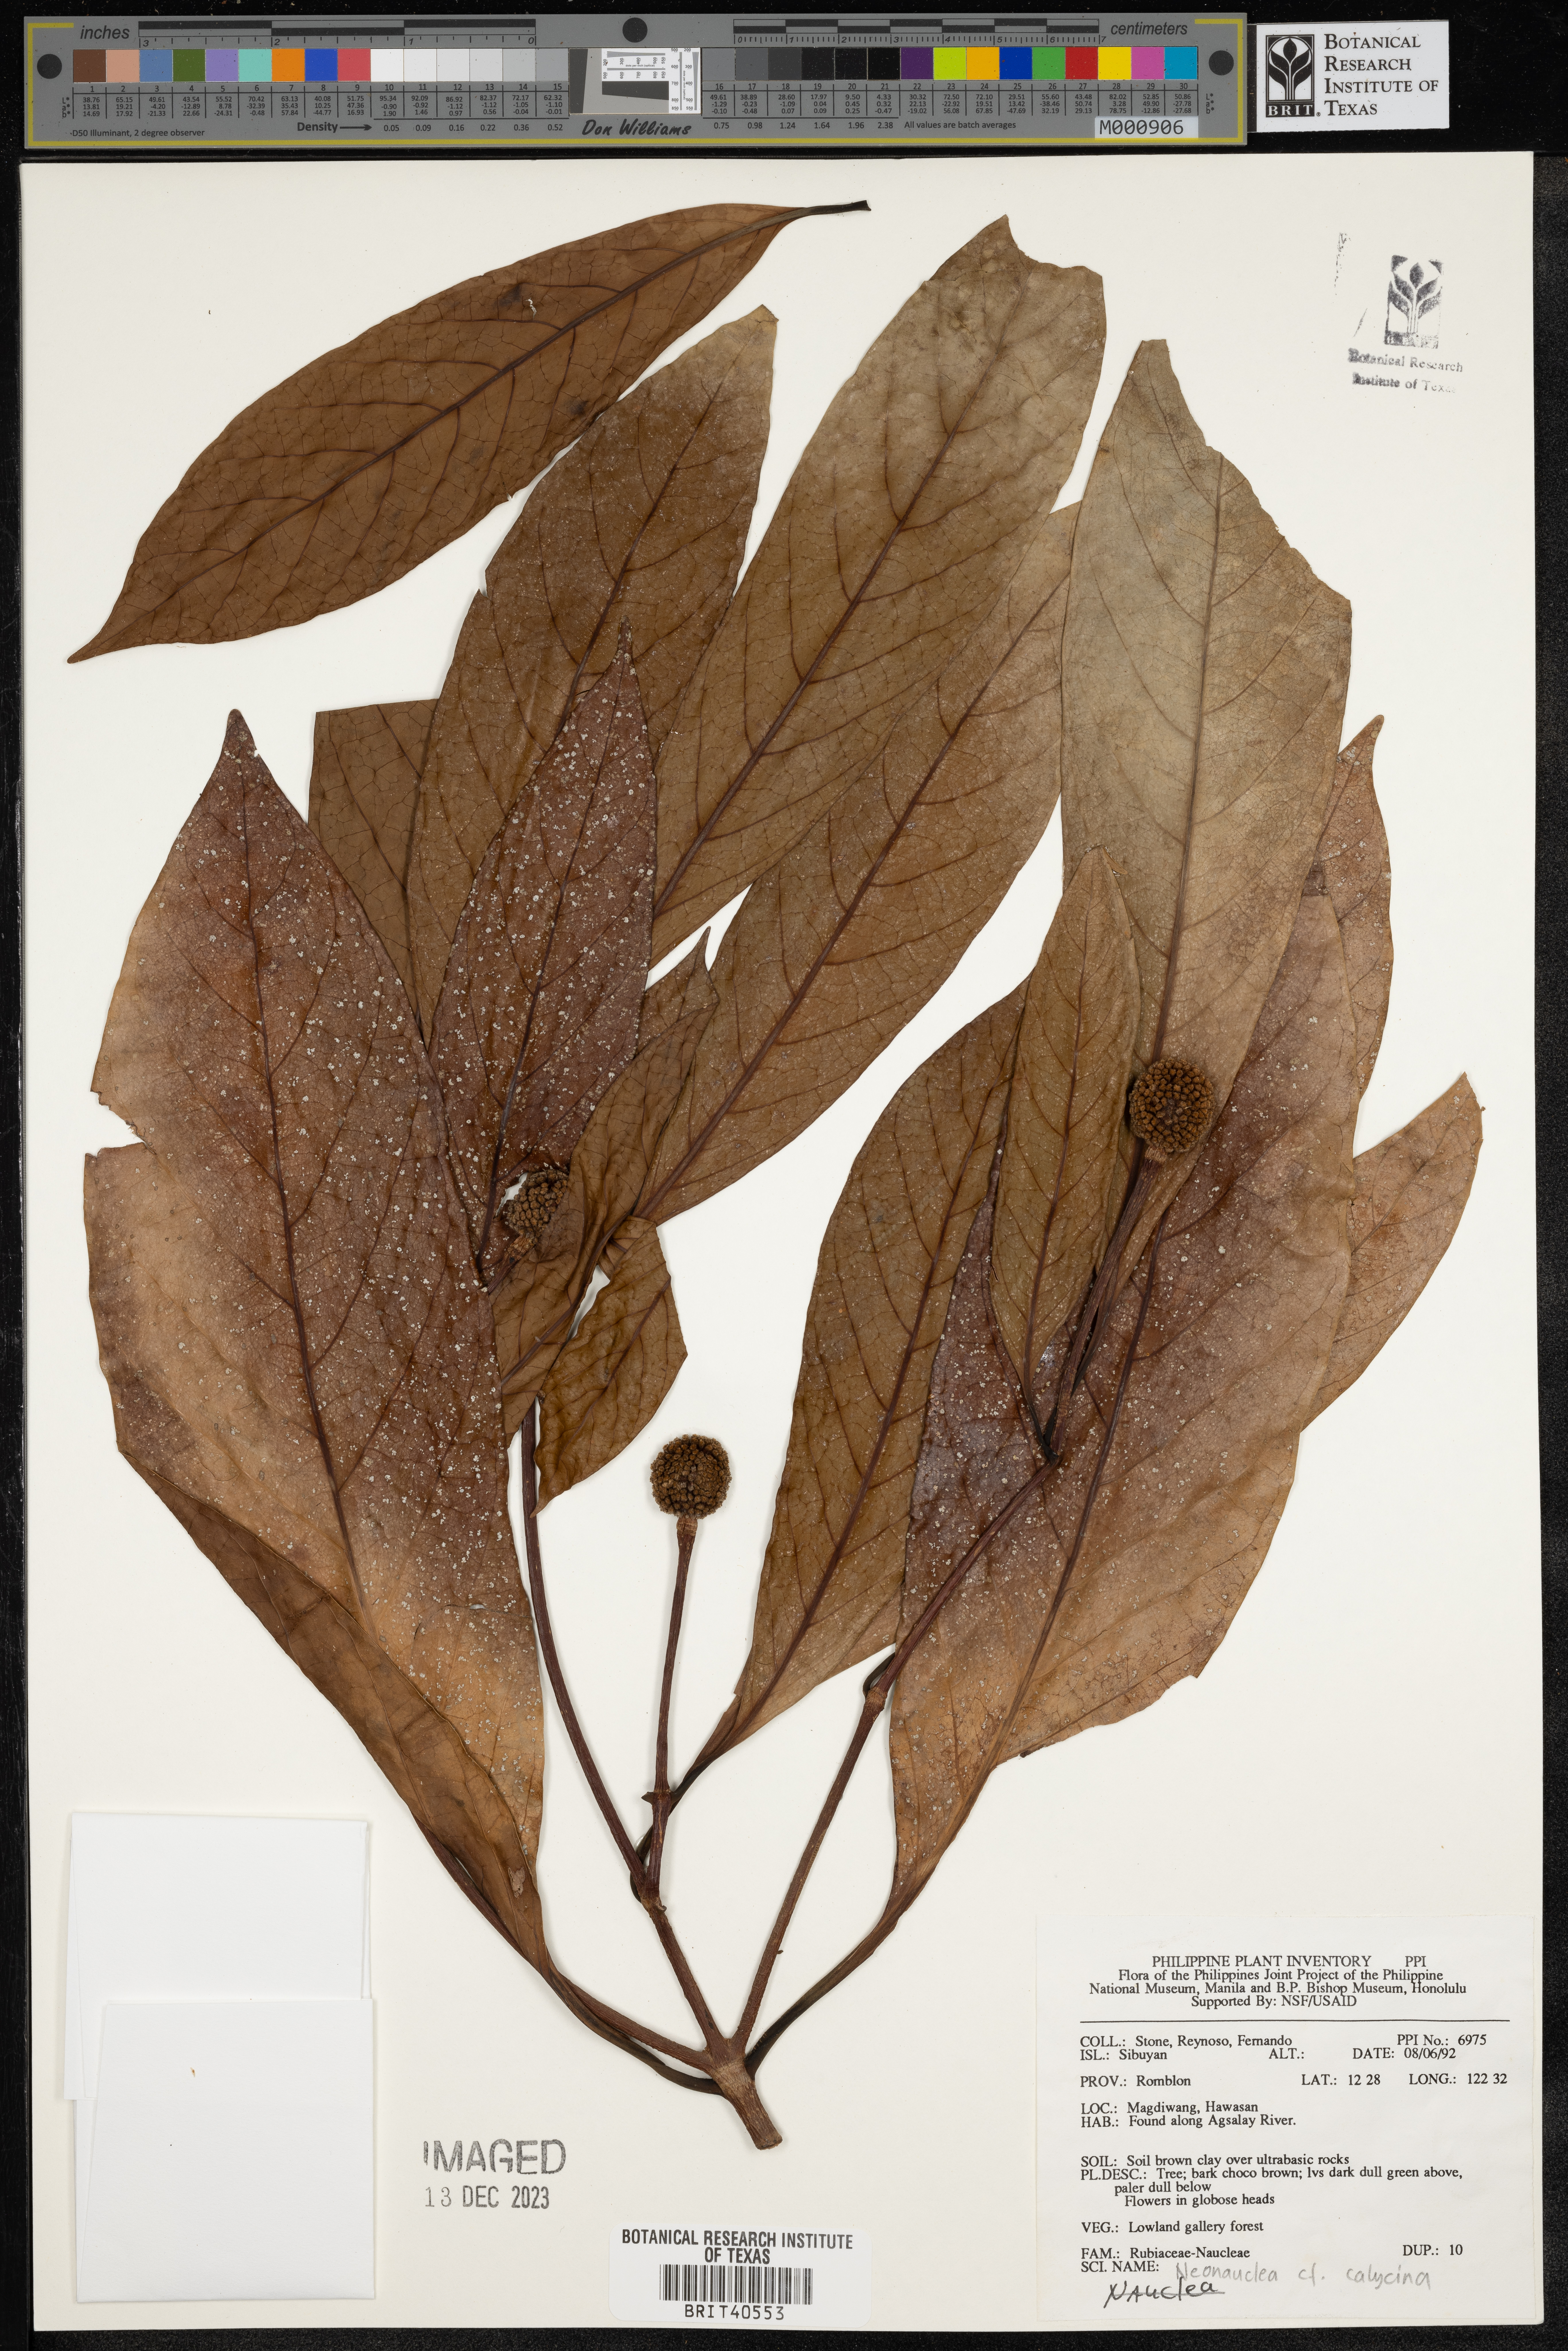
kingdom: Plantae
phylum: Tracheophyta
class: Magnoliopsida
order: Gentianales
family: Rubiaceae
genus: Neonauclea
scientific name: Neonauclea calycina
